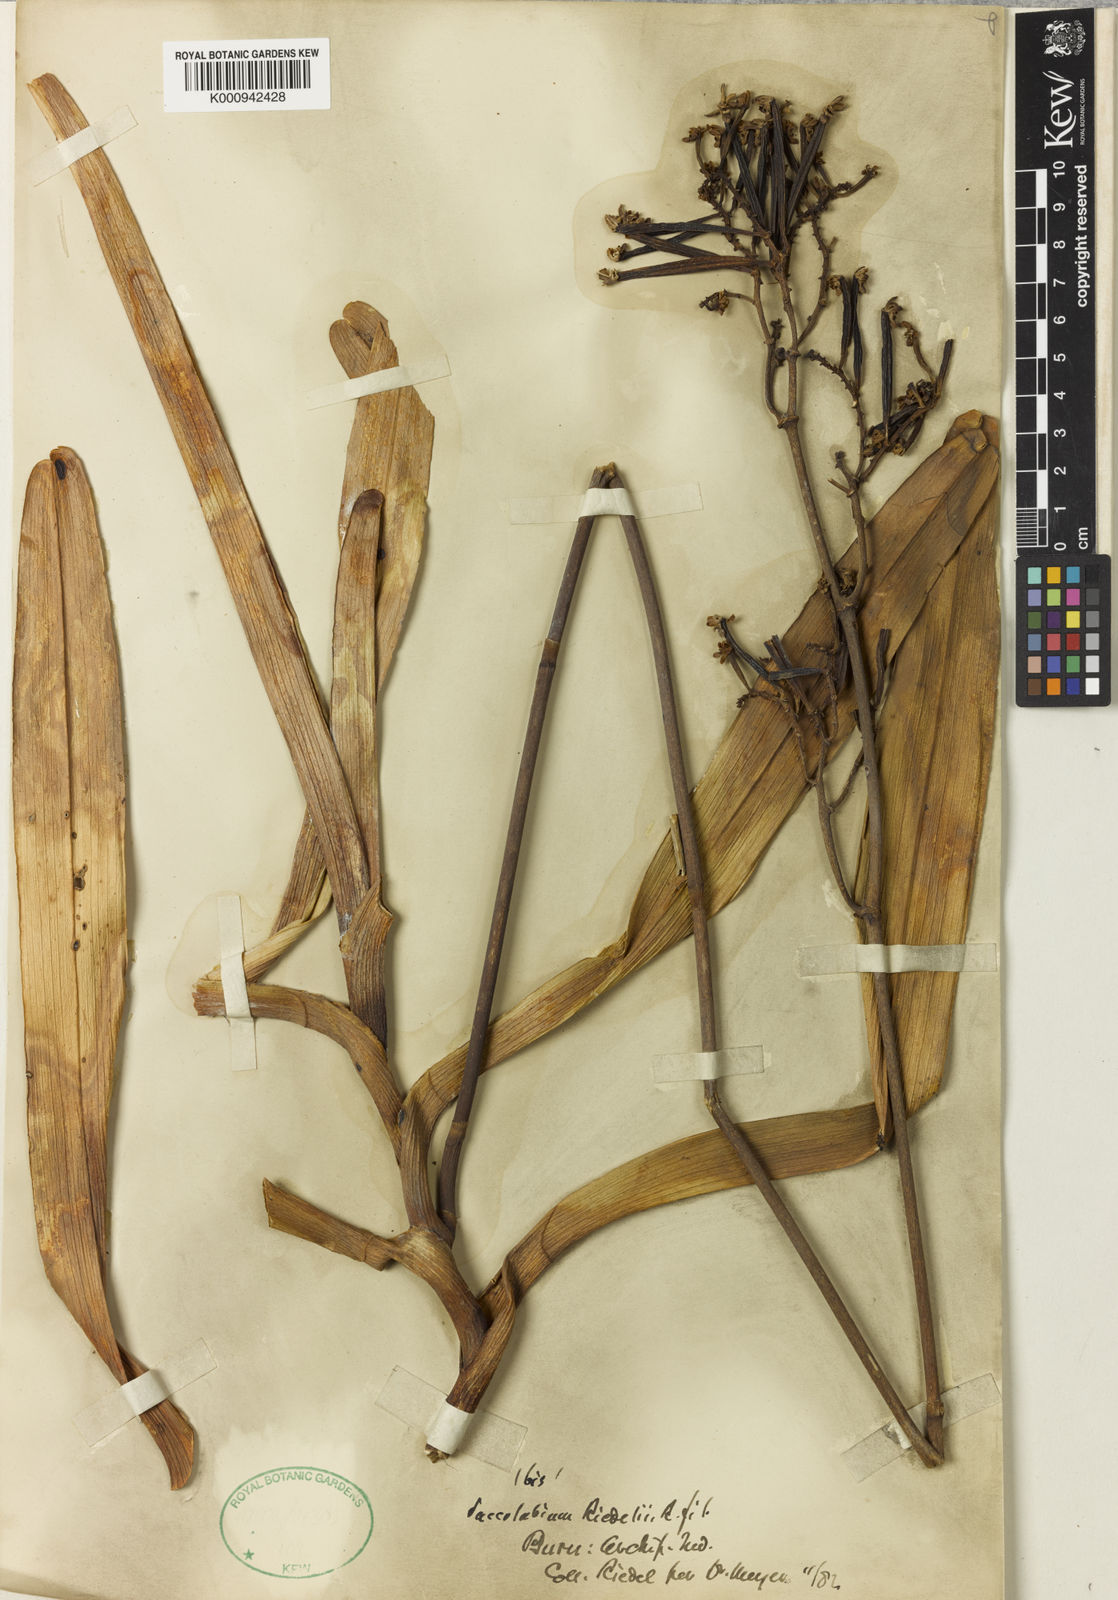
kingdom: Plantae
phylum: Tracheophyta
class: Liliopsida
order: Asparagales
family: Orchidaceae
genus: Pomatocalpa
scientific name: Pomatocalpa marsupiale
